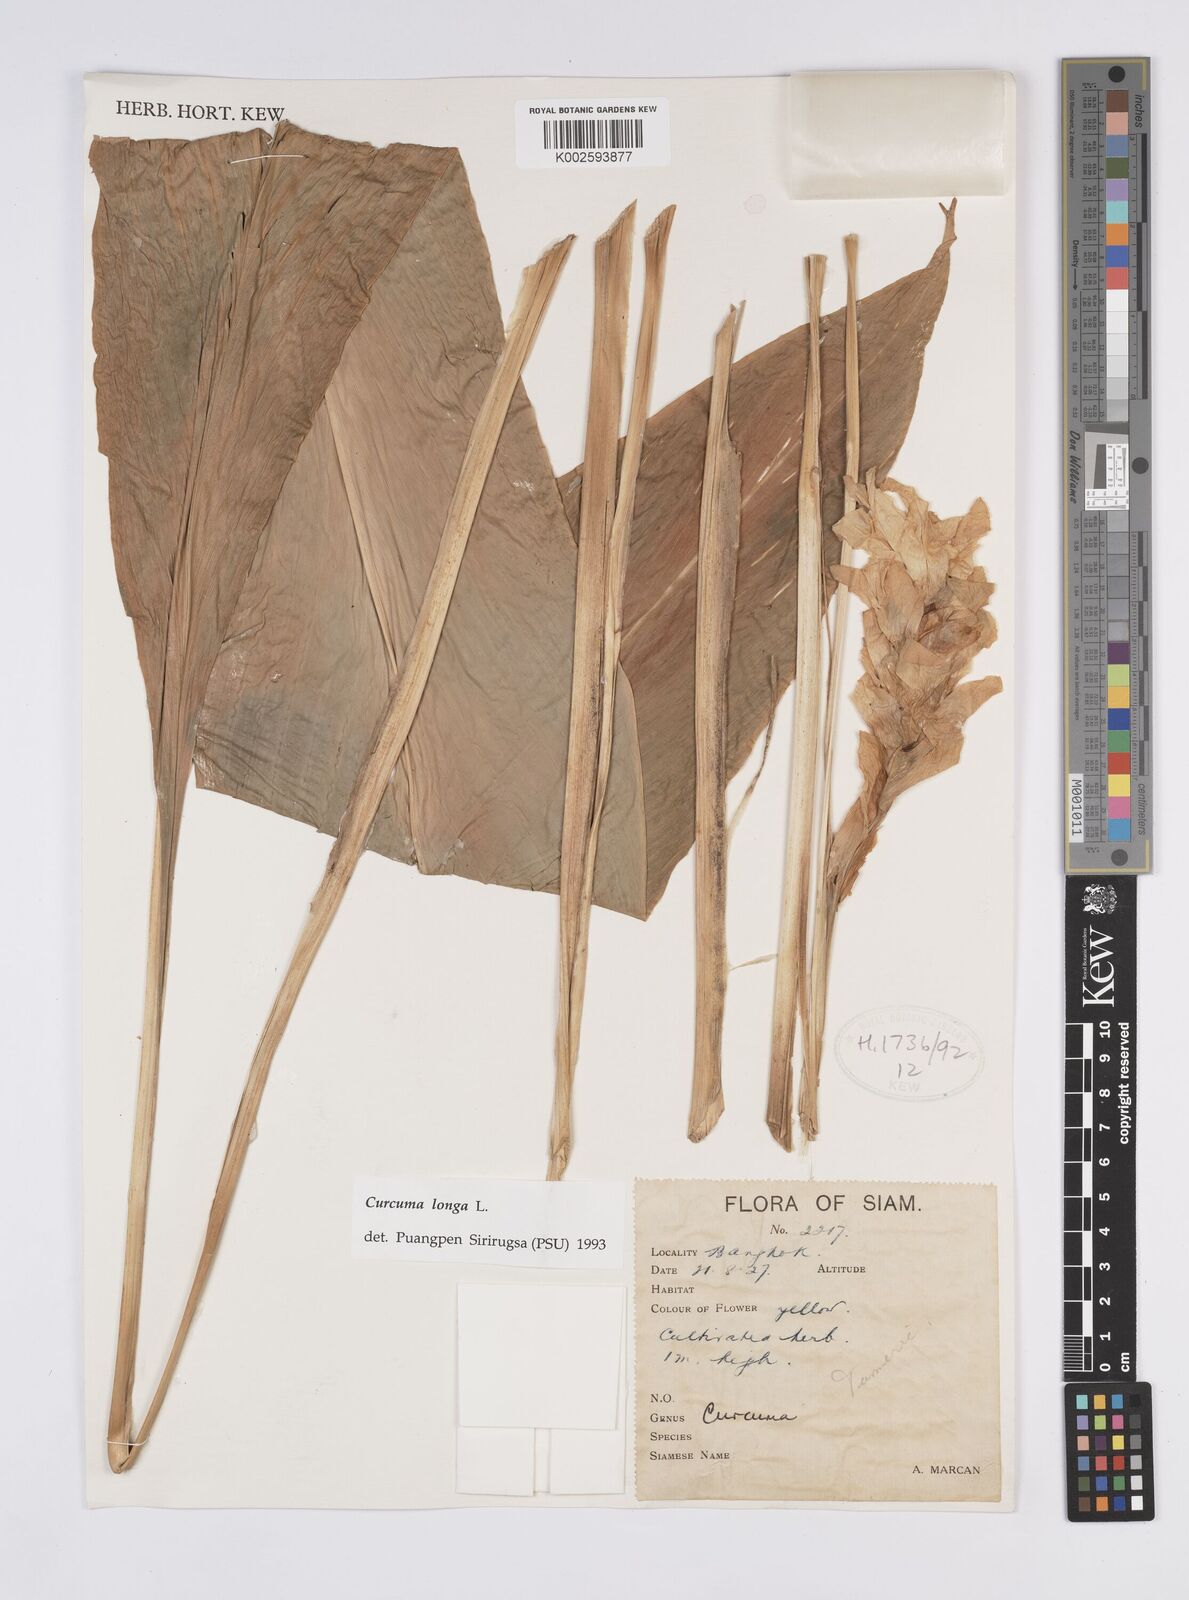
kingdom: Plantae
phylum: Tracheophyta
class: Liliopsida
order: Zingiberales
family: Zingiberaceae
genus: Curcuma
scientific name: Curcuma longa
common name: Turmeric
